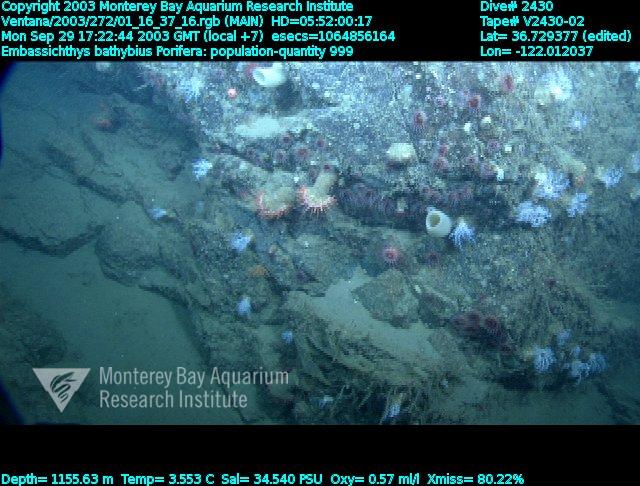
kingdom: Animalia
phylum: Porifera
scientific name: Porifera
